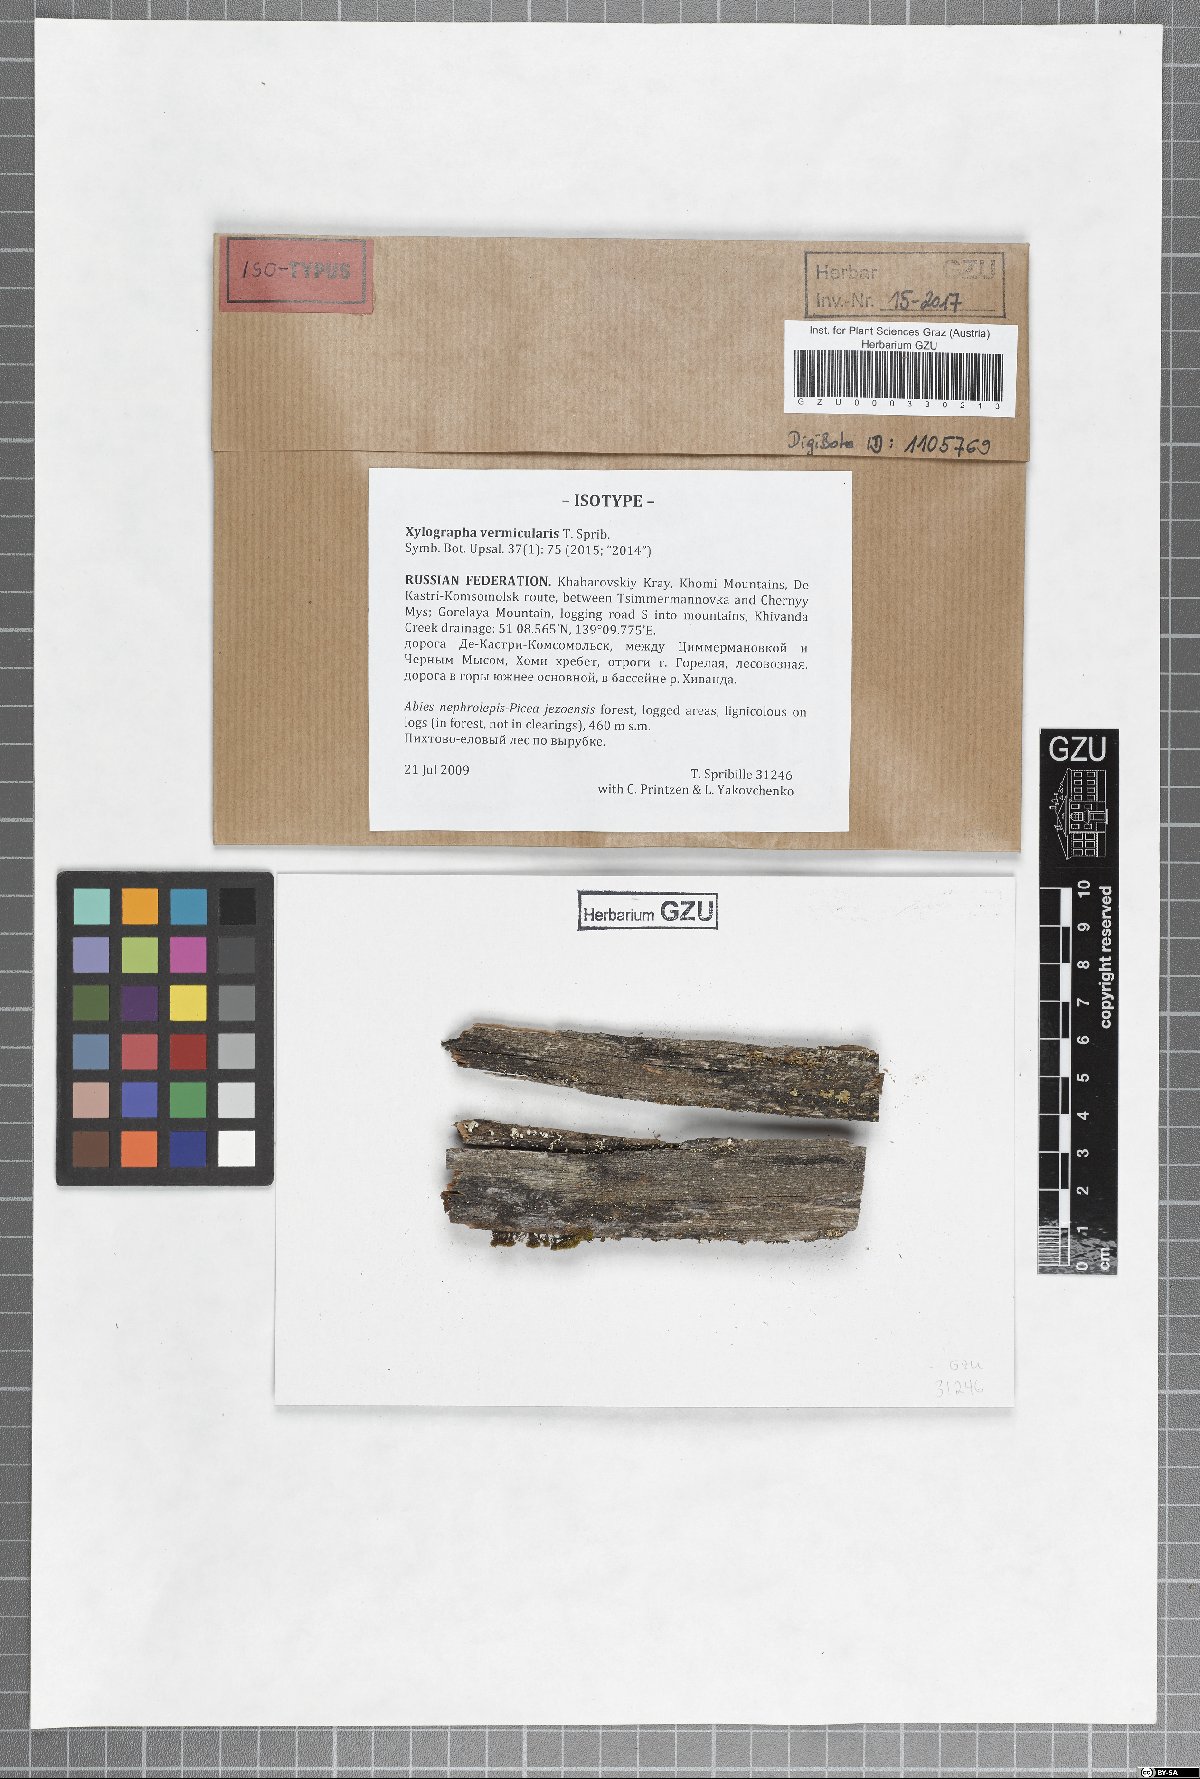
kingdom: Fungi
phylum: Ascomycota
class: Lecanoromycetes
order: Baeomycetales
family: Xylographaceae
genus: Xylographa
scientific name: Xylographa vermicularis
